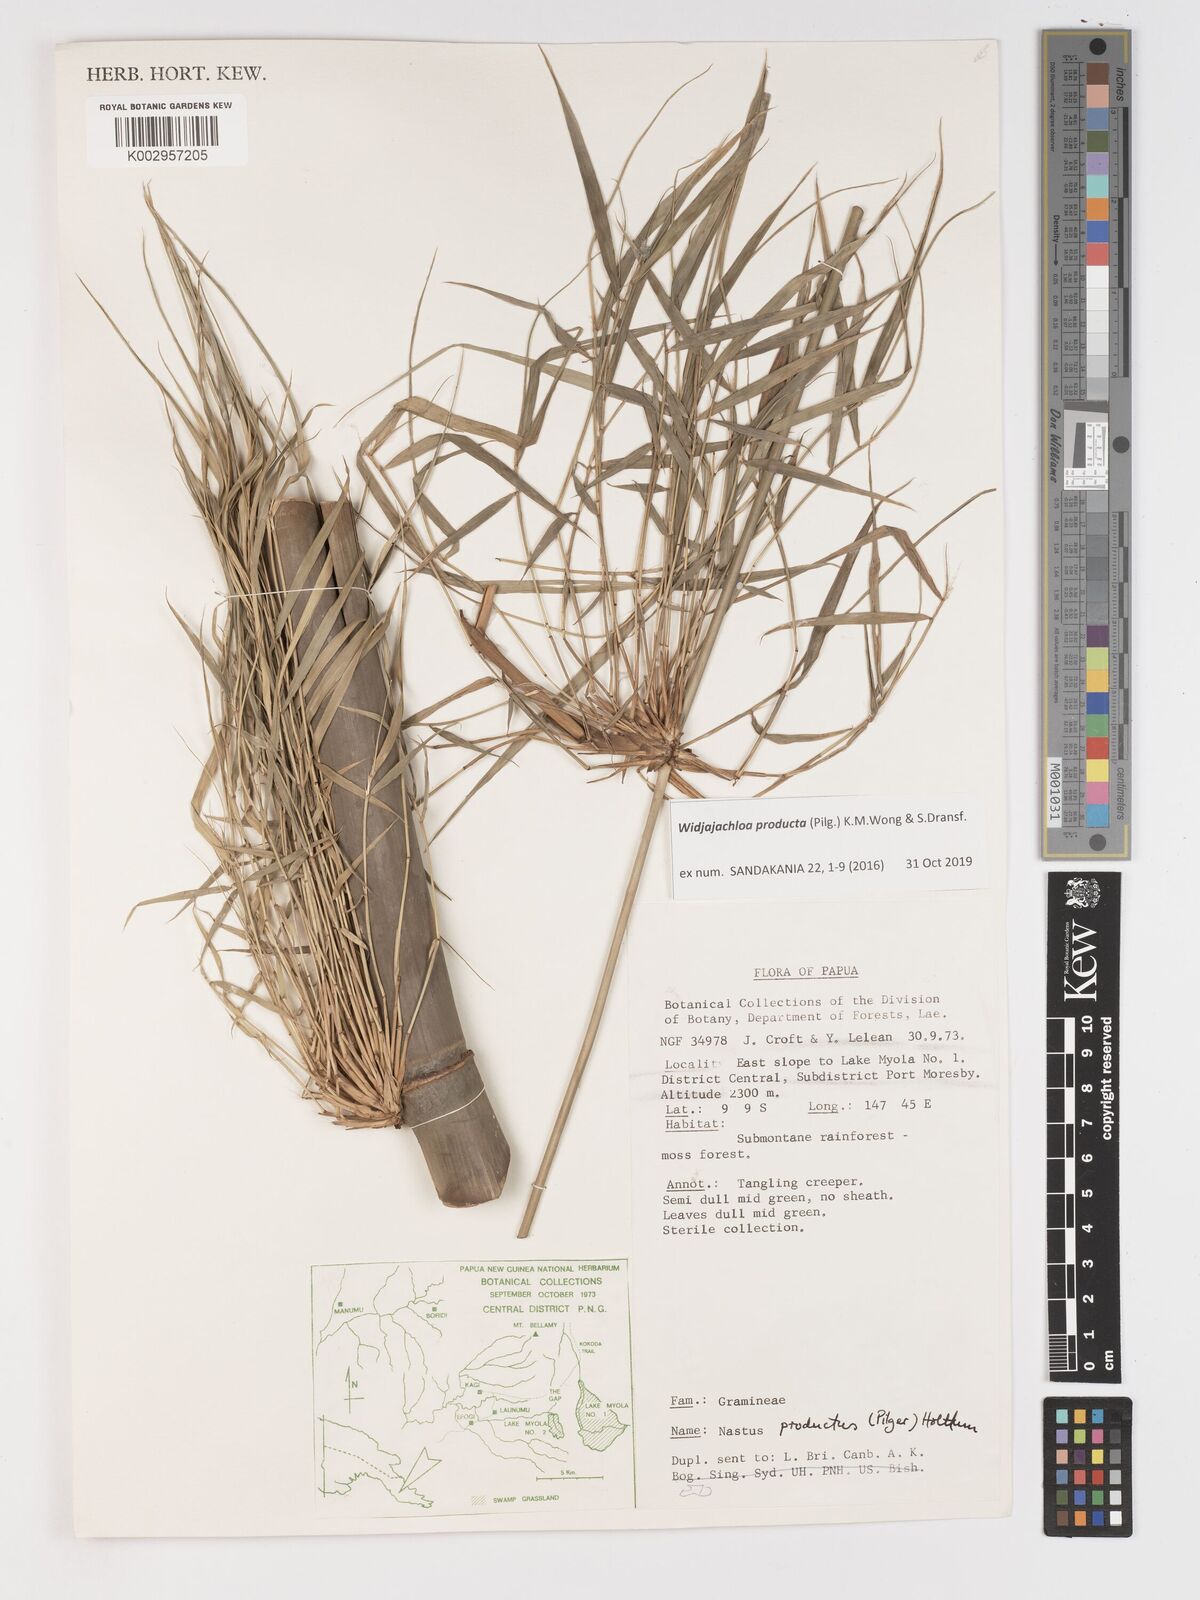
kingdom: Plantae
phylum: Tracheophyta
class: Liliopsida
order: Poales
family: Poaceae
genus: Widjajachloa
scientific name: Widjajachloa
